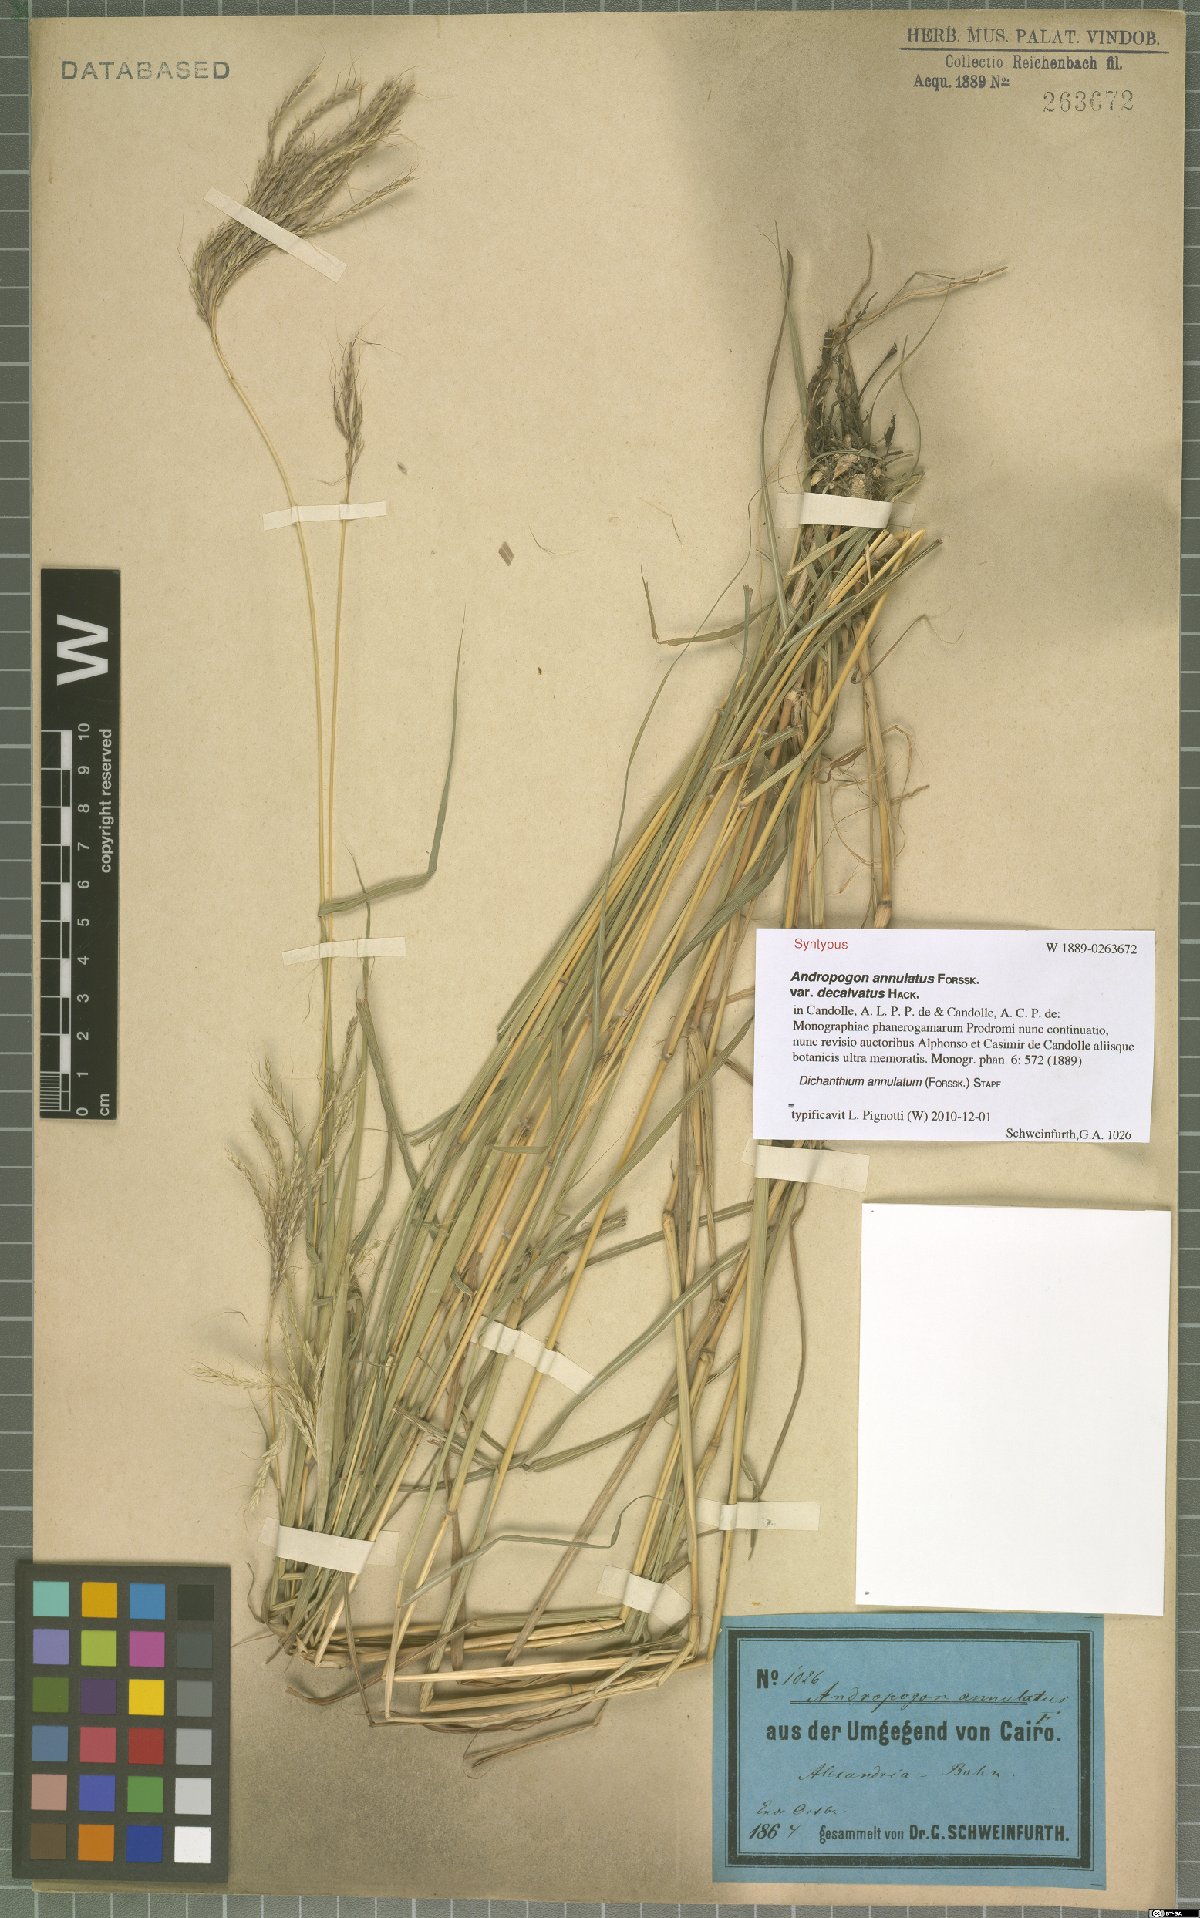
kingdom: Plantae
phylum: Tracheophyta
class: Liliopsida
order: Poales
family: Poaceae
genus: Dichanthium
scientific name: Dichanthium annulatum
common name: Kleberg's bluestem
